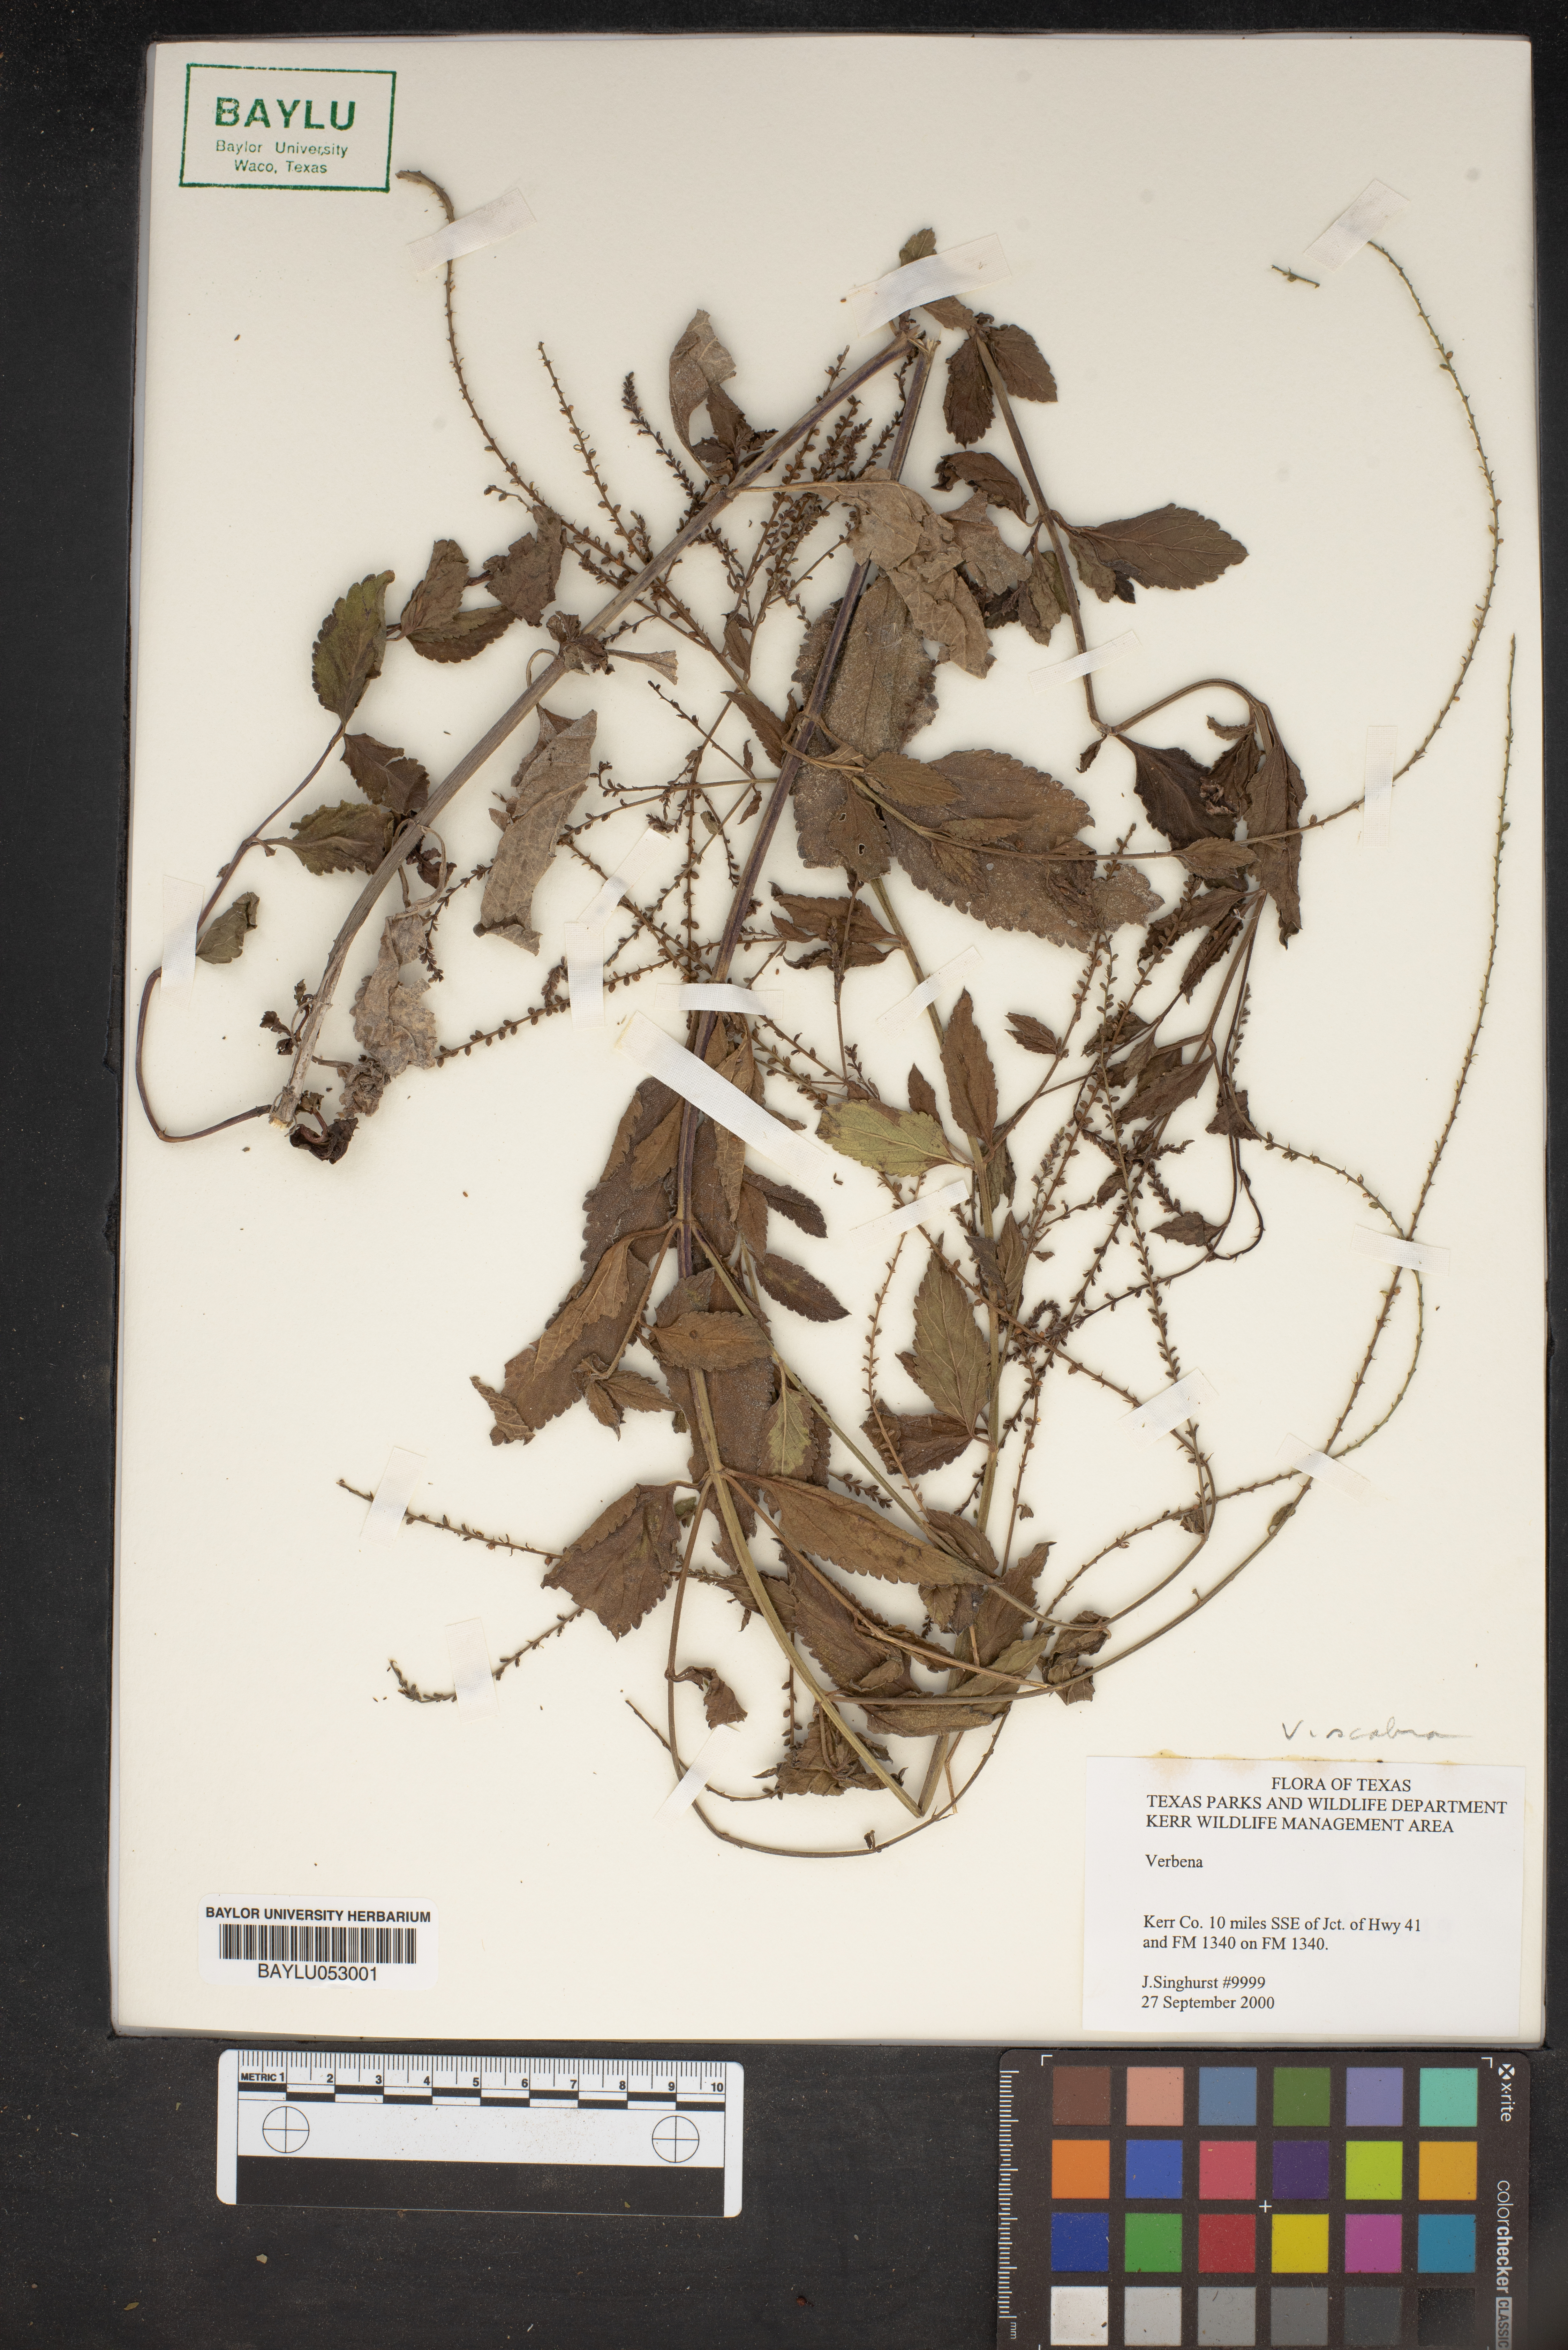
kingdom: Plantae
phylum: Tracheophyta
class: Magnoliopsida
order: Lamiales
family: Verbenaceae
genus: Verbena
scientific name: Verbena
